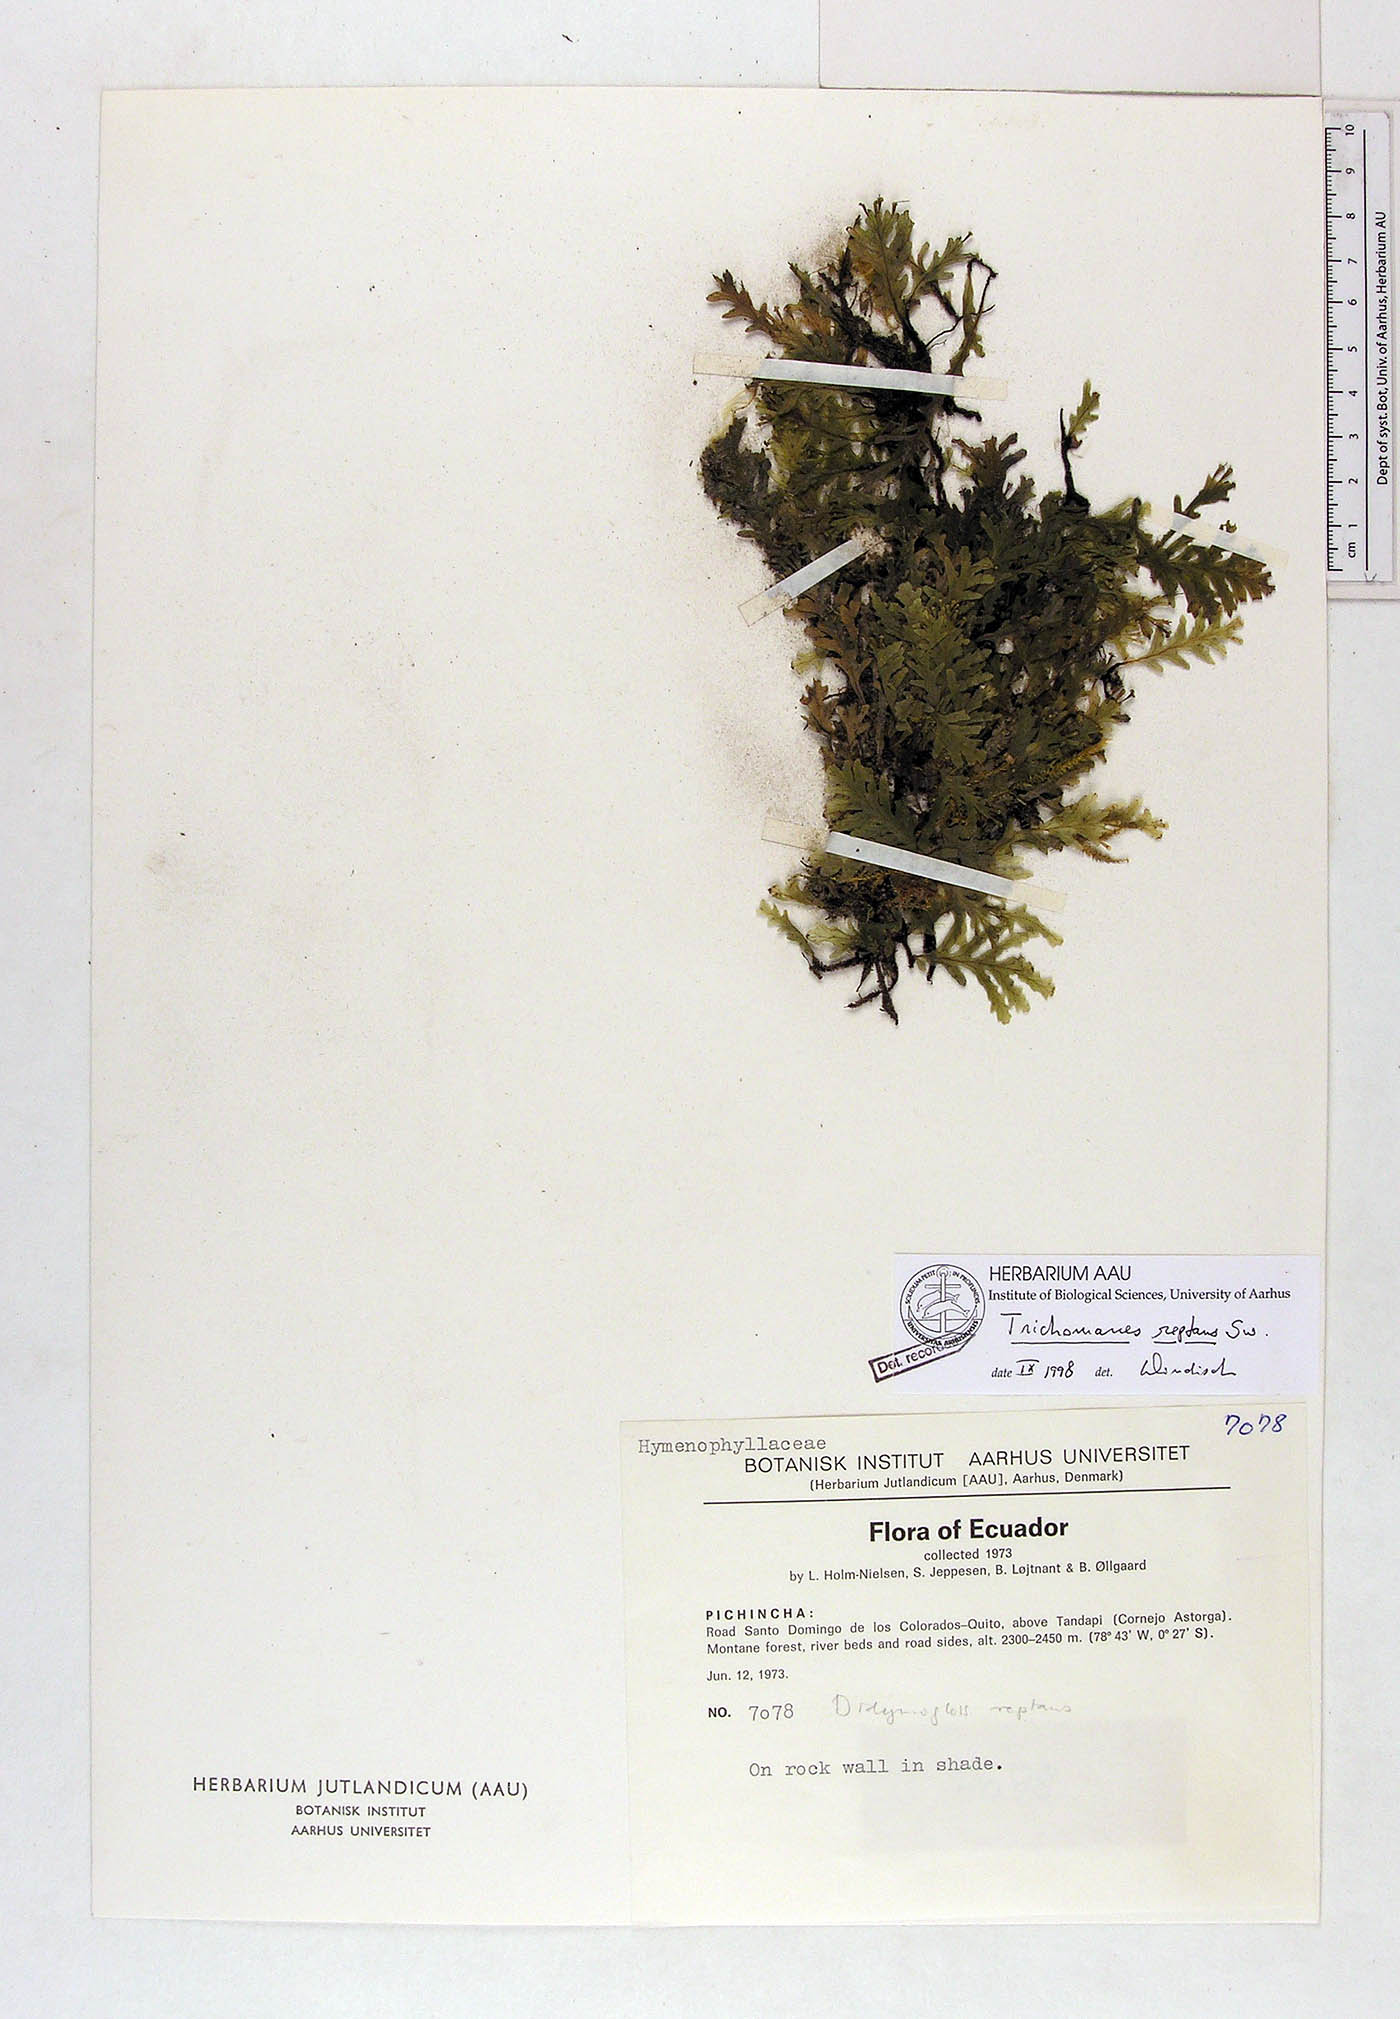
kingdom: Plantae
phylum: Tracheophyta
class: Polypodiopsida
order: Hymenophyllales
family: Hymenophyllaceae
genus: Didymoglossum
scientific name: Didymoglossum reptans
